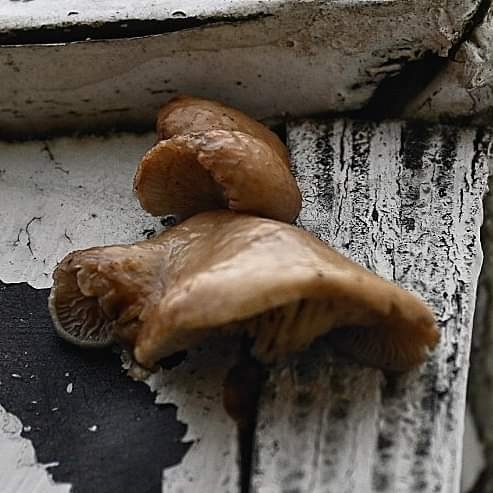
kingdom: Fungi
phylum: Basidiomycota
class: Agaricomycetes
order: Agaricales
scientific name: Agaricales
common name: champignonordenen
